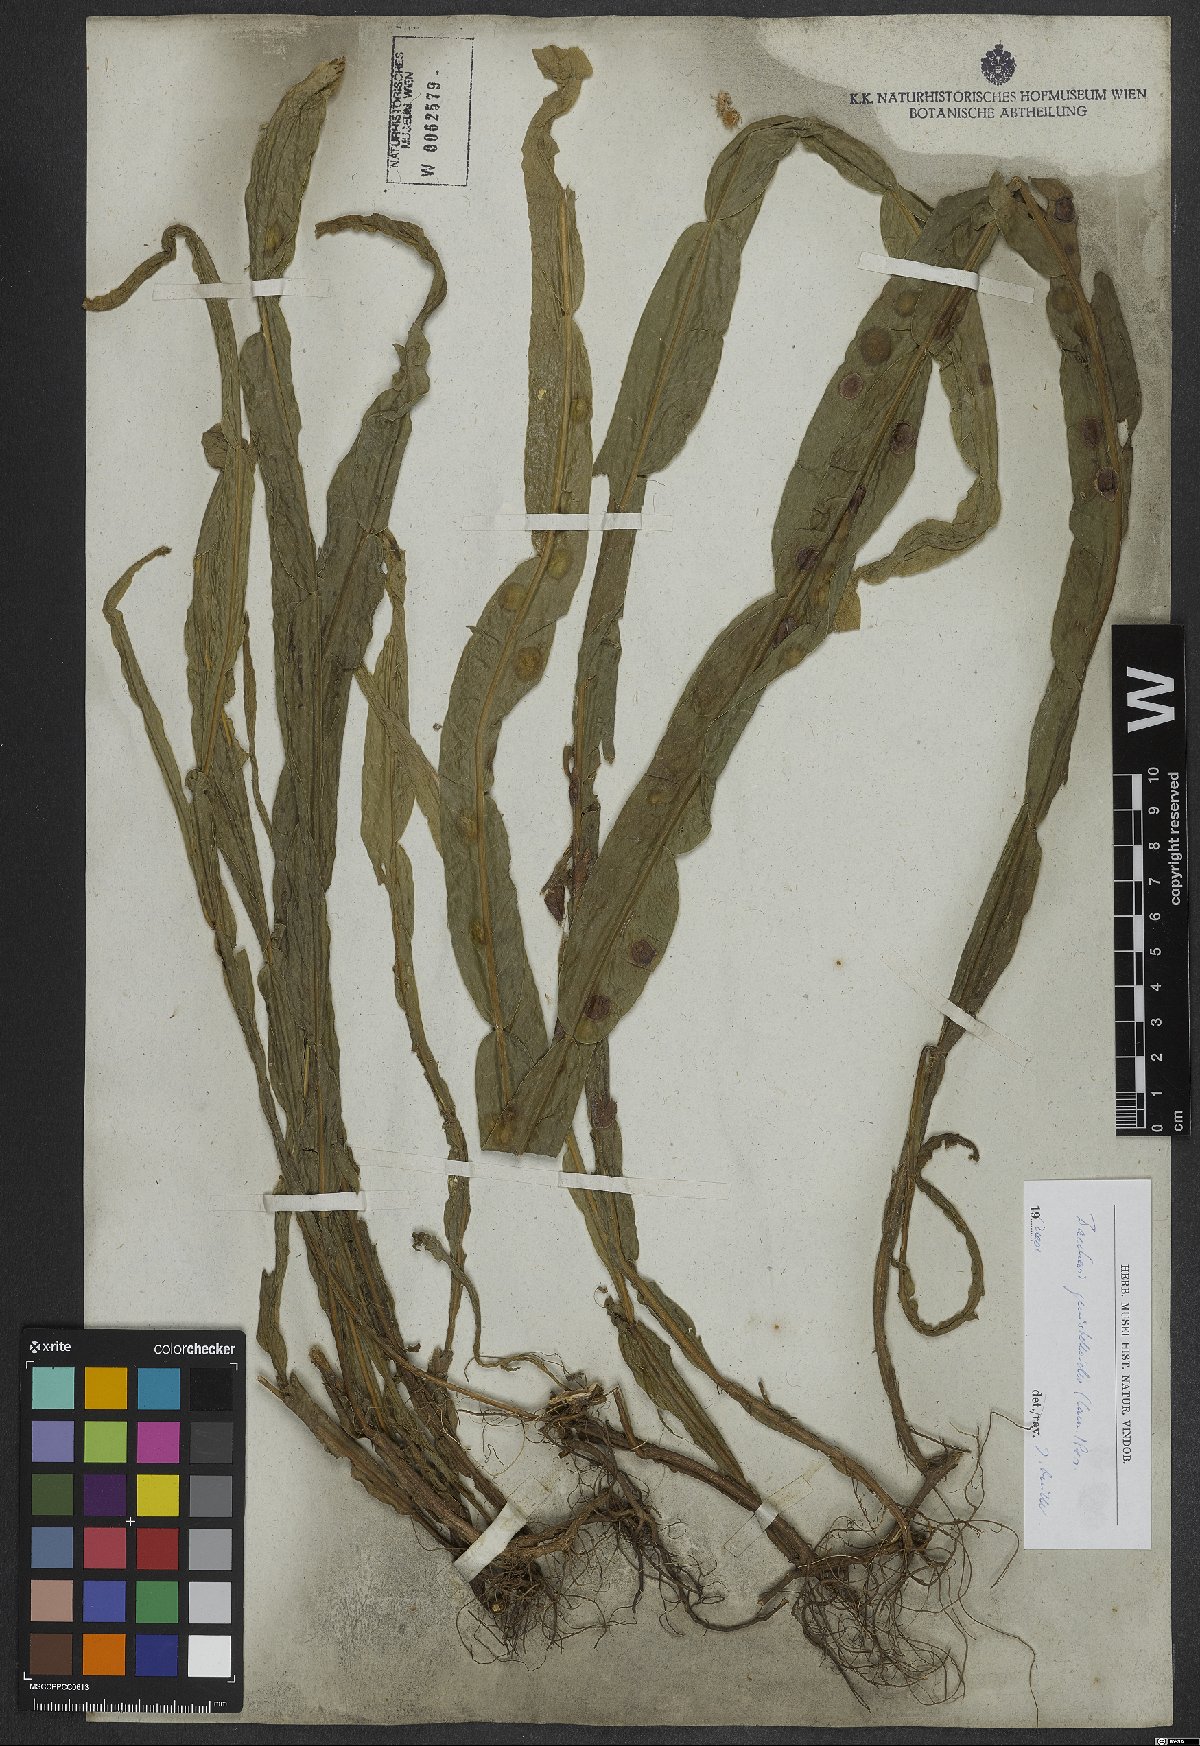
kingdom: Plantae
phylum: Tracheophyta
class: Magnoliopsida
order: Asterales
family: Asteraceae
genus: Baccharis
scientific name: Baccharis genistelloides
